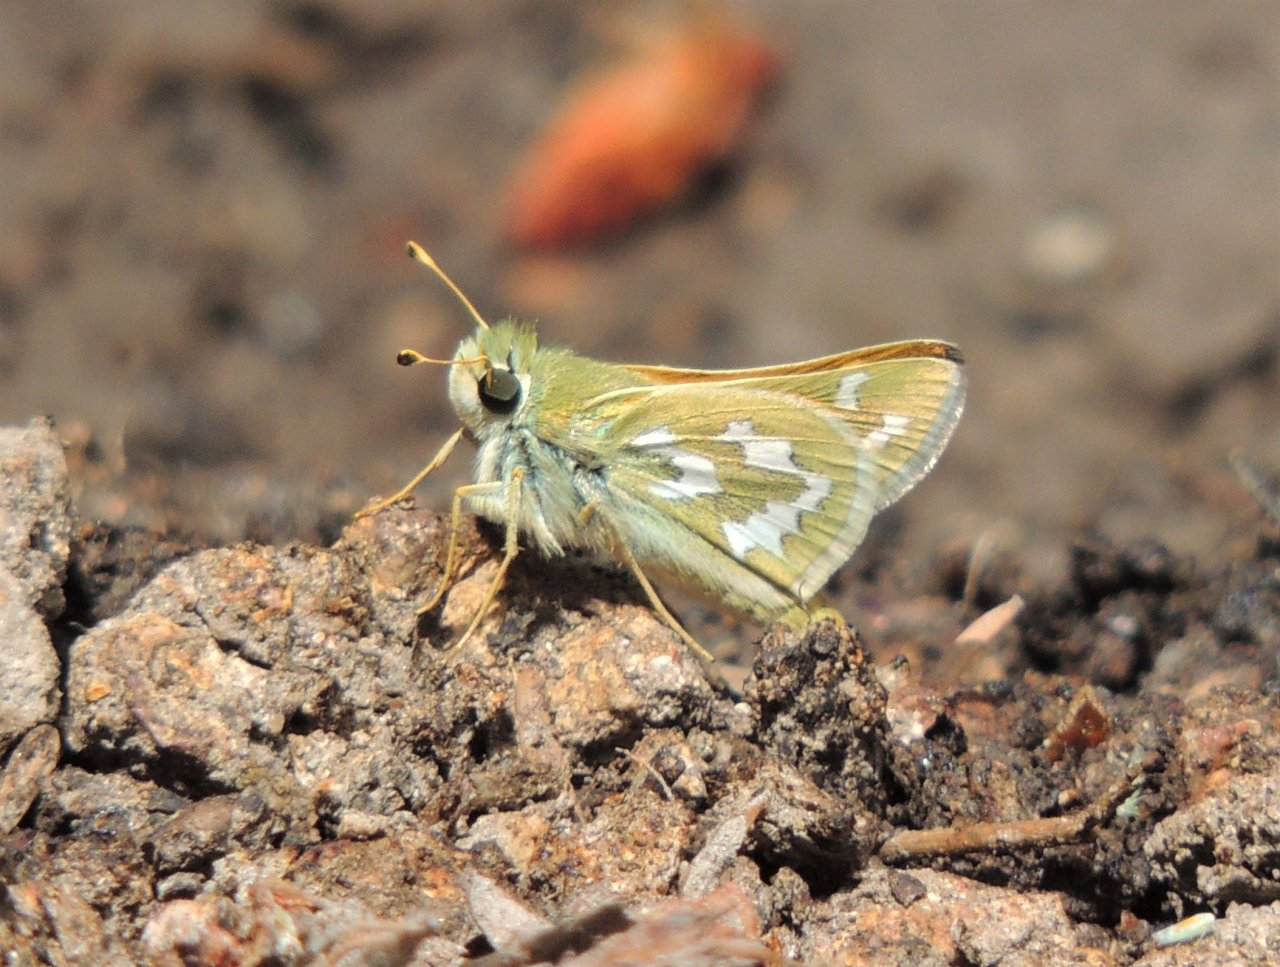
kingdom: Animalia
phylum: Arthropoda
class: Insecta
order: Lepidoptera
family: Hesperiidae
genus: Hesperia
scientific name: Hesperia comma
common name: Western Branded Skipper
